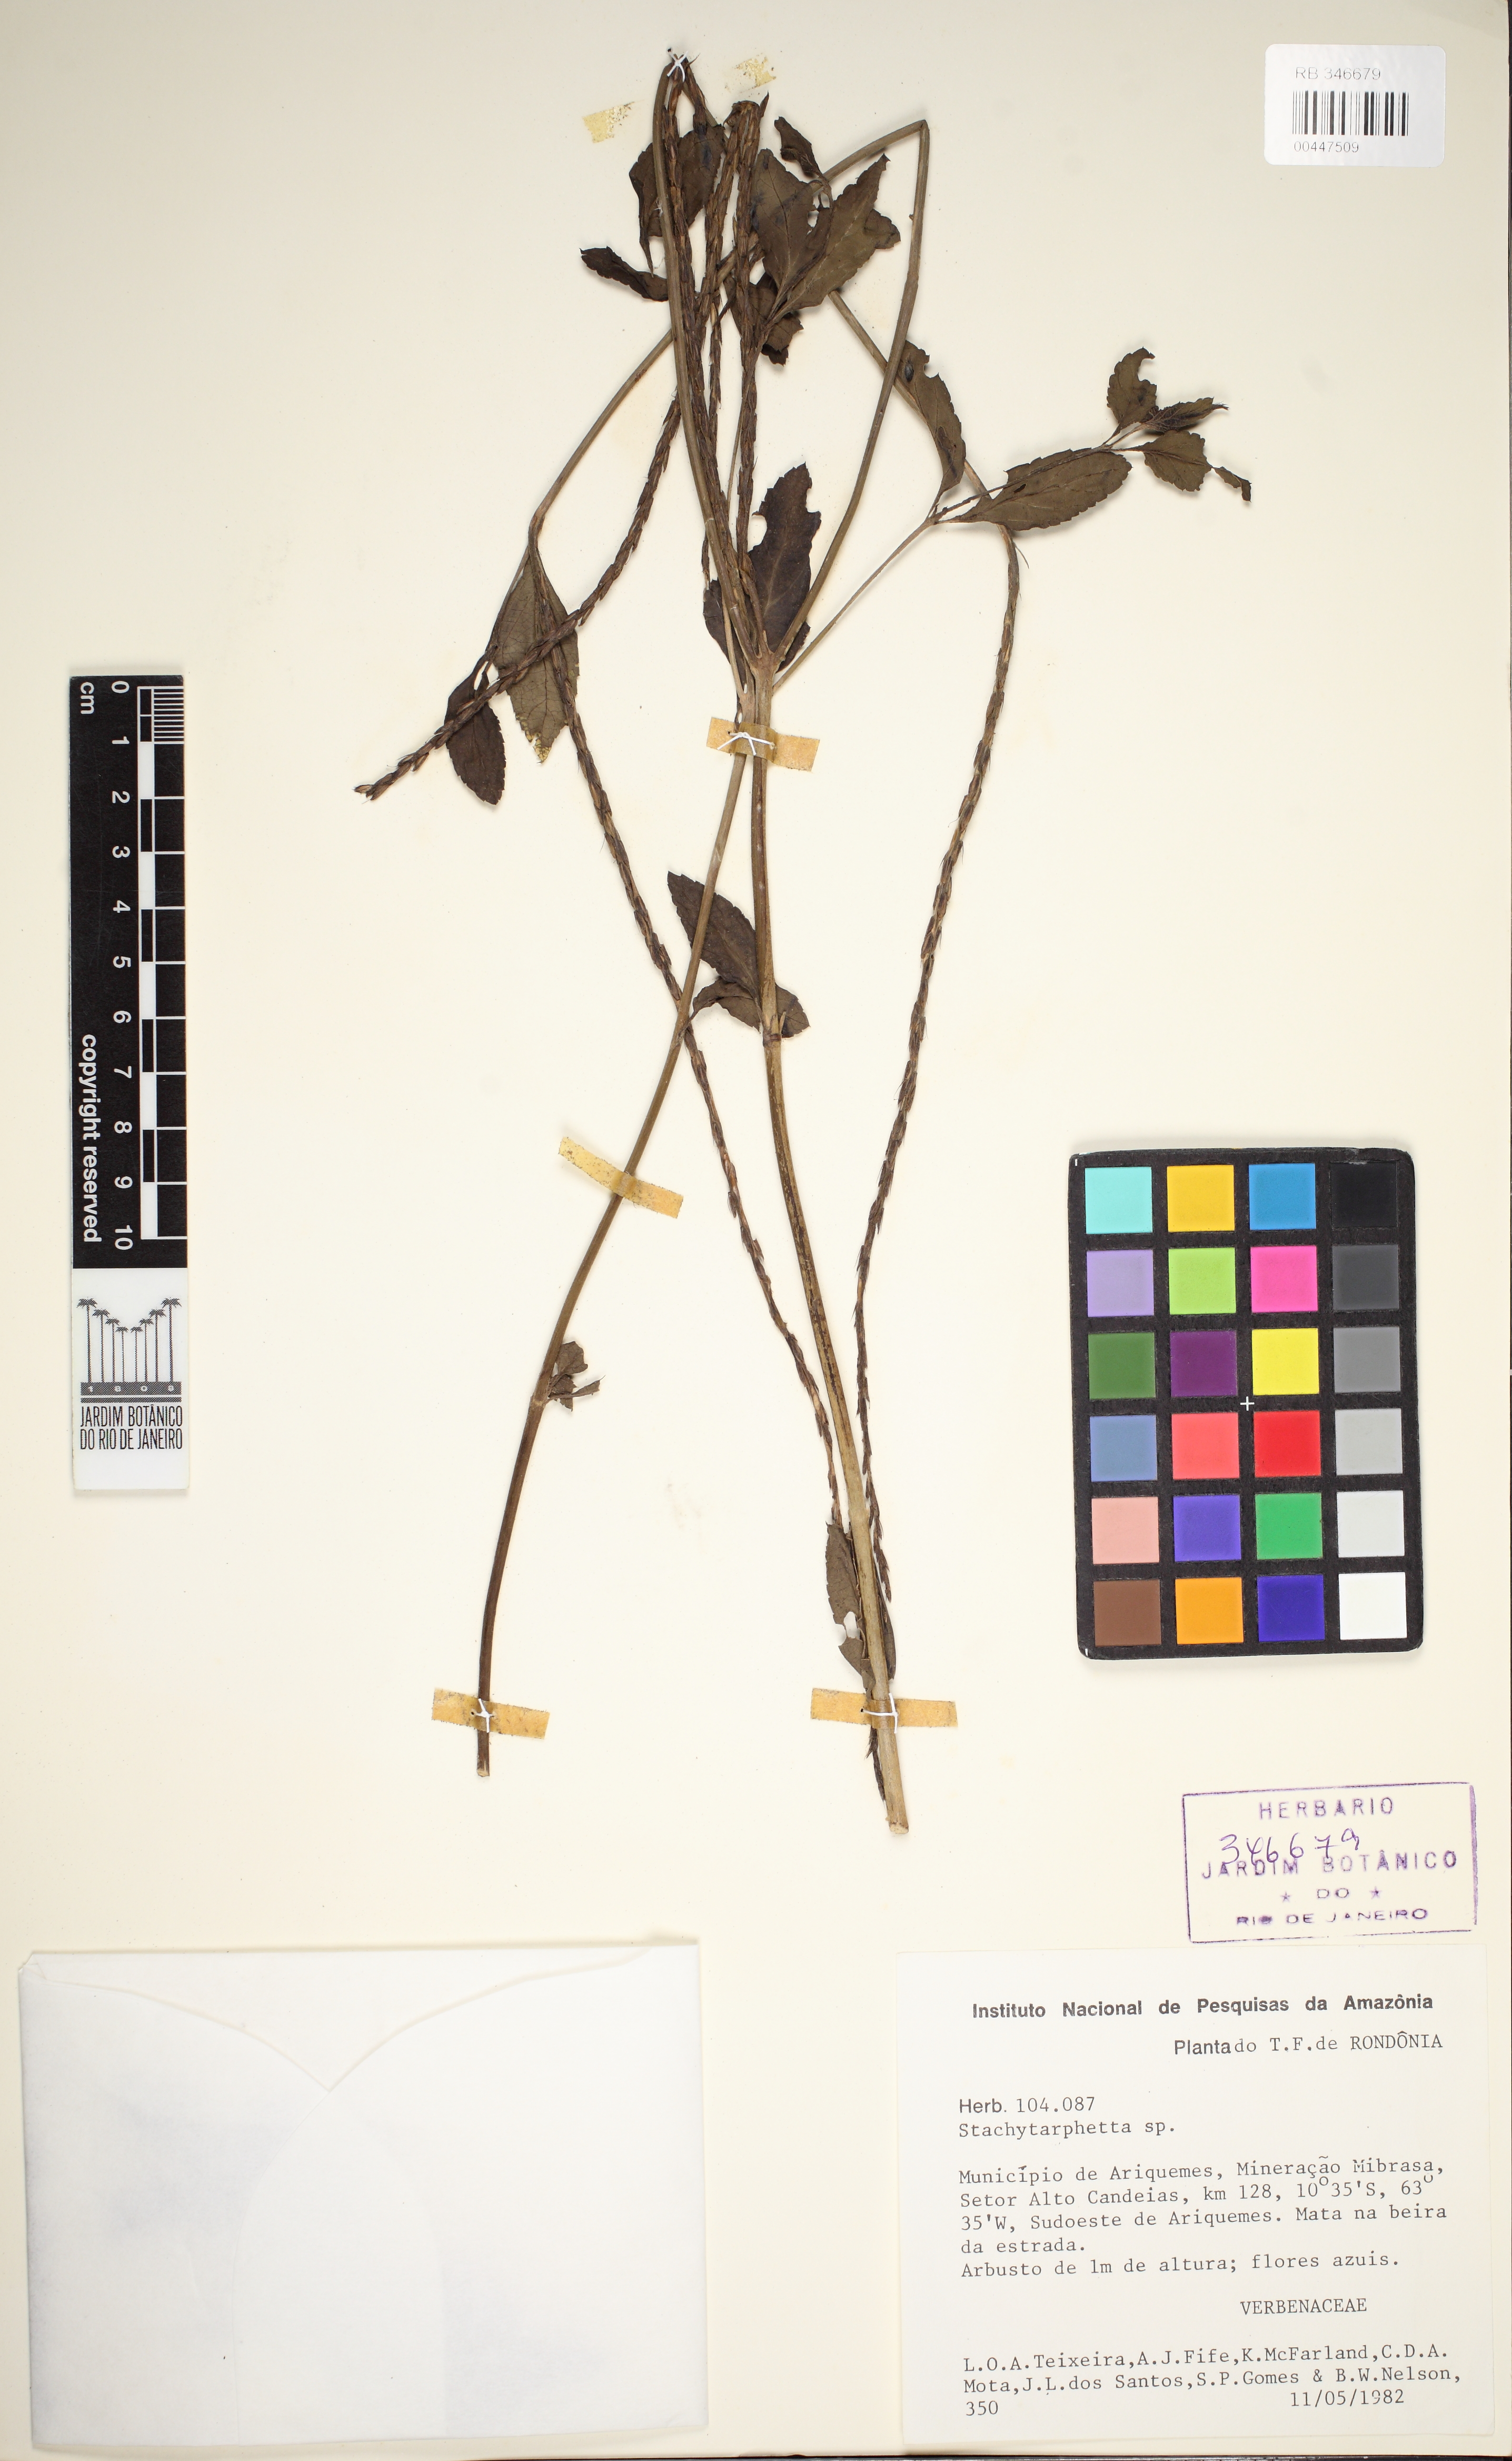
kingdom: Plantae
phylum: Tracheophyta
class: Magnoliopsida
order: Lamiales
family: Verbenaceae
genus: Stachytarpheta
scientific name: Stachytarpheta cayennensis
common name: Cayenne porterweed
